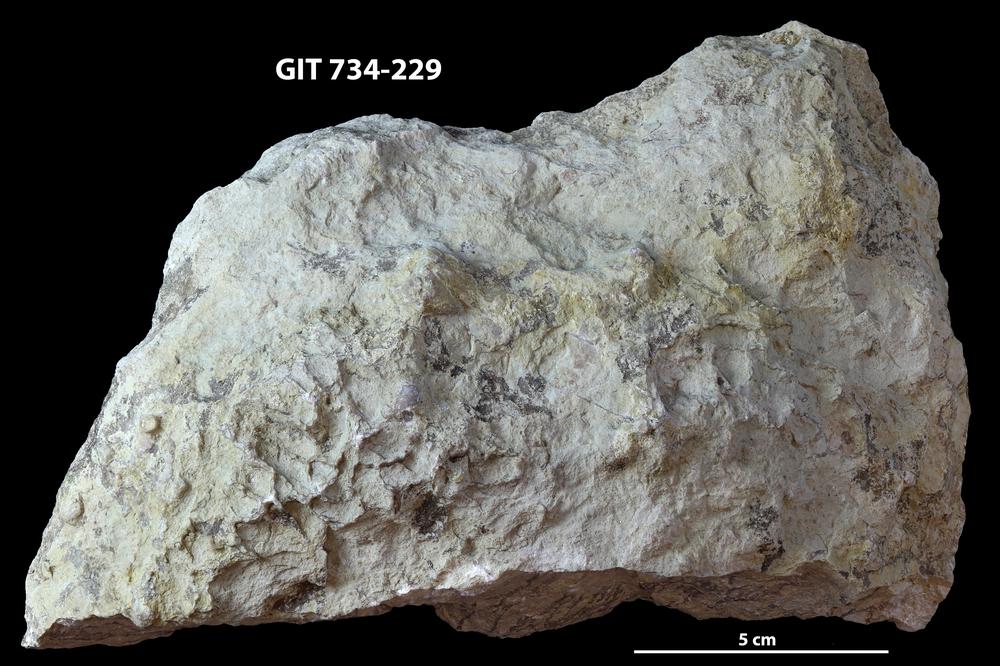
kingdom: Animalia
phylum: Cnidaria
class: Anthozoa
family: Cateniporidae
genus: Catenipora
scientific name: Catenipora
